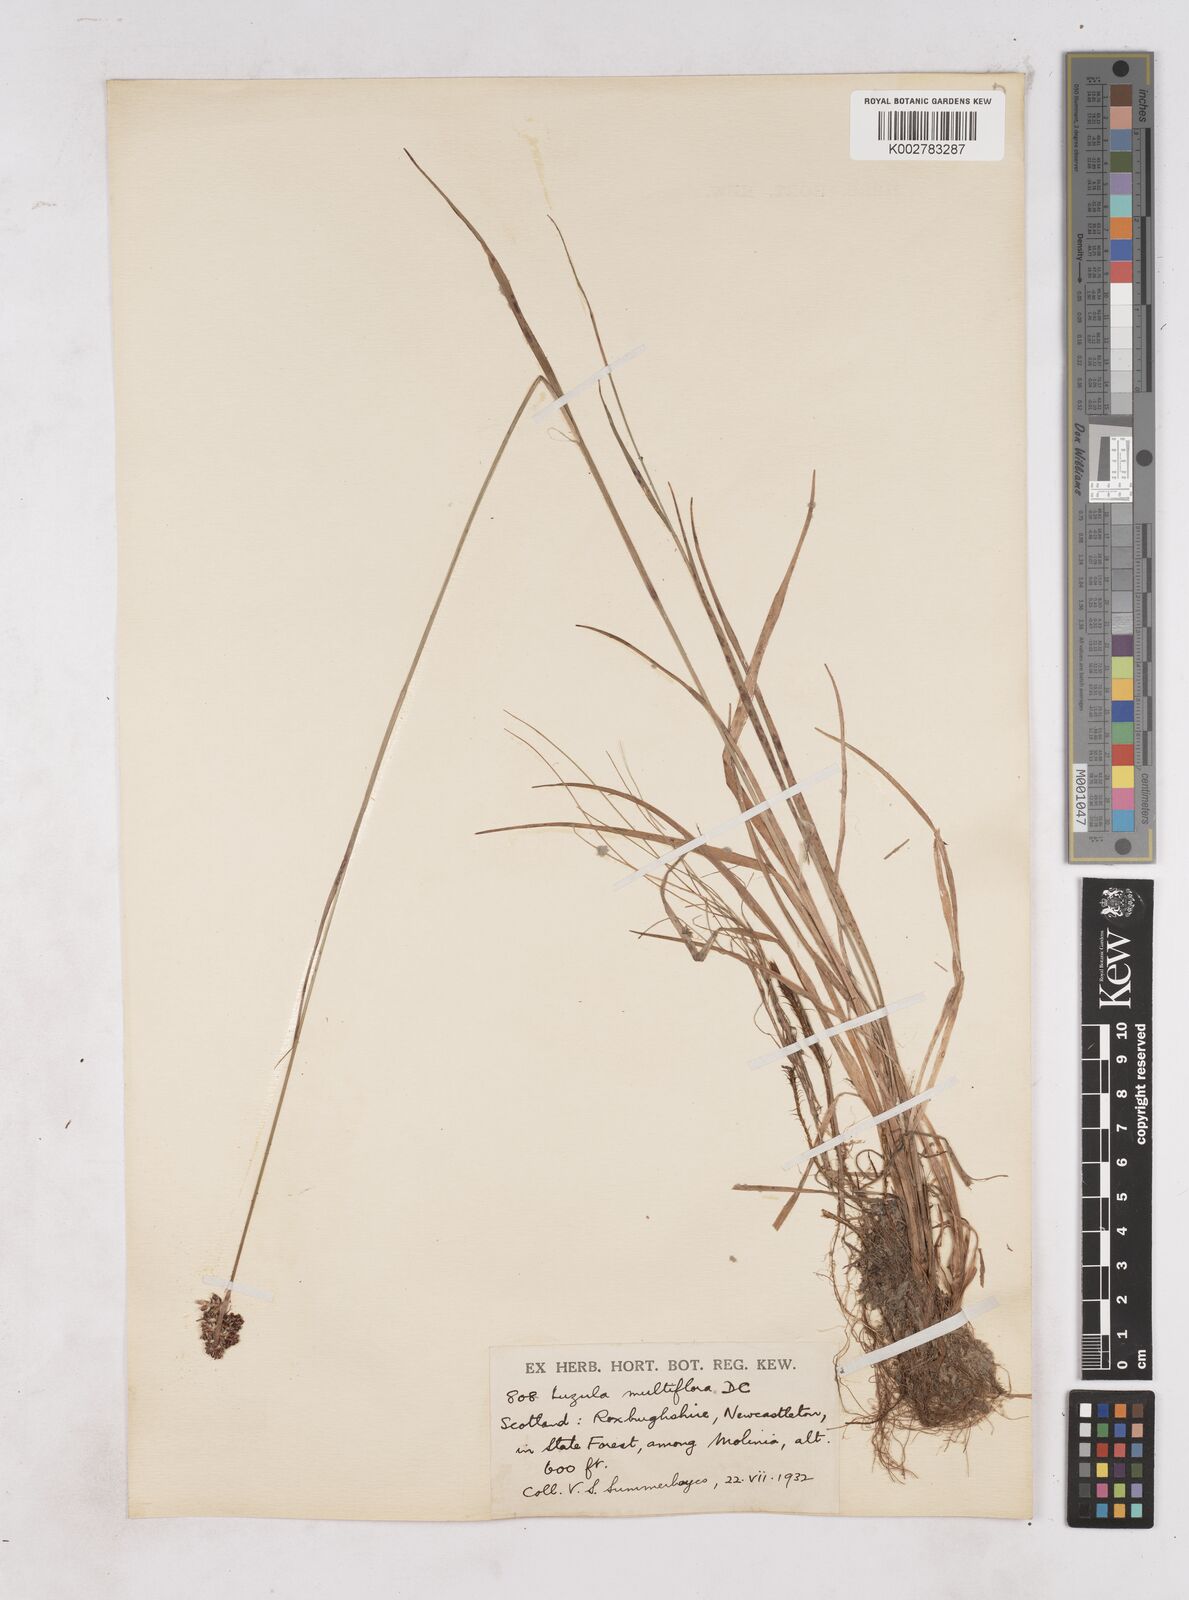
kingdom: Plantae
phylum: Tracheophyta
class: Liliopsida
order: Poales
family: Juncaceae
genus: Luzula
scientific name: Luzula multiflora
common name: Heath wood-rush
